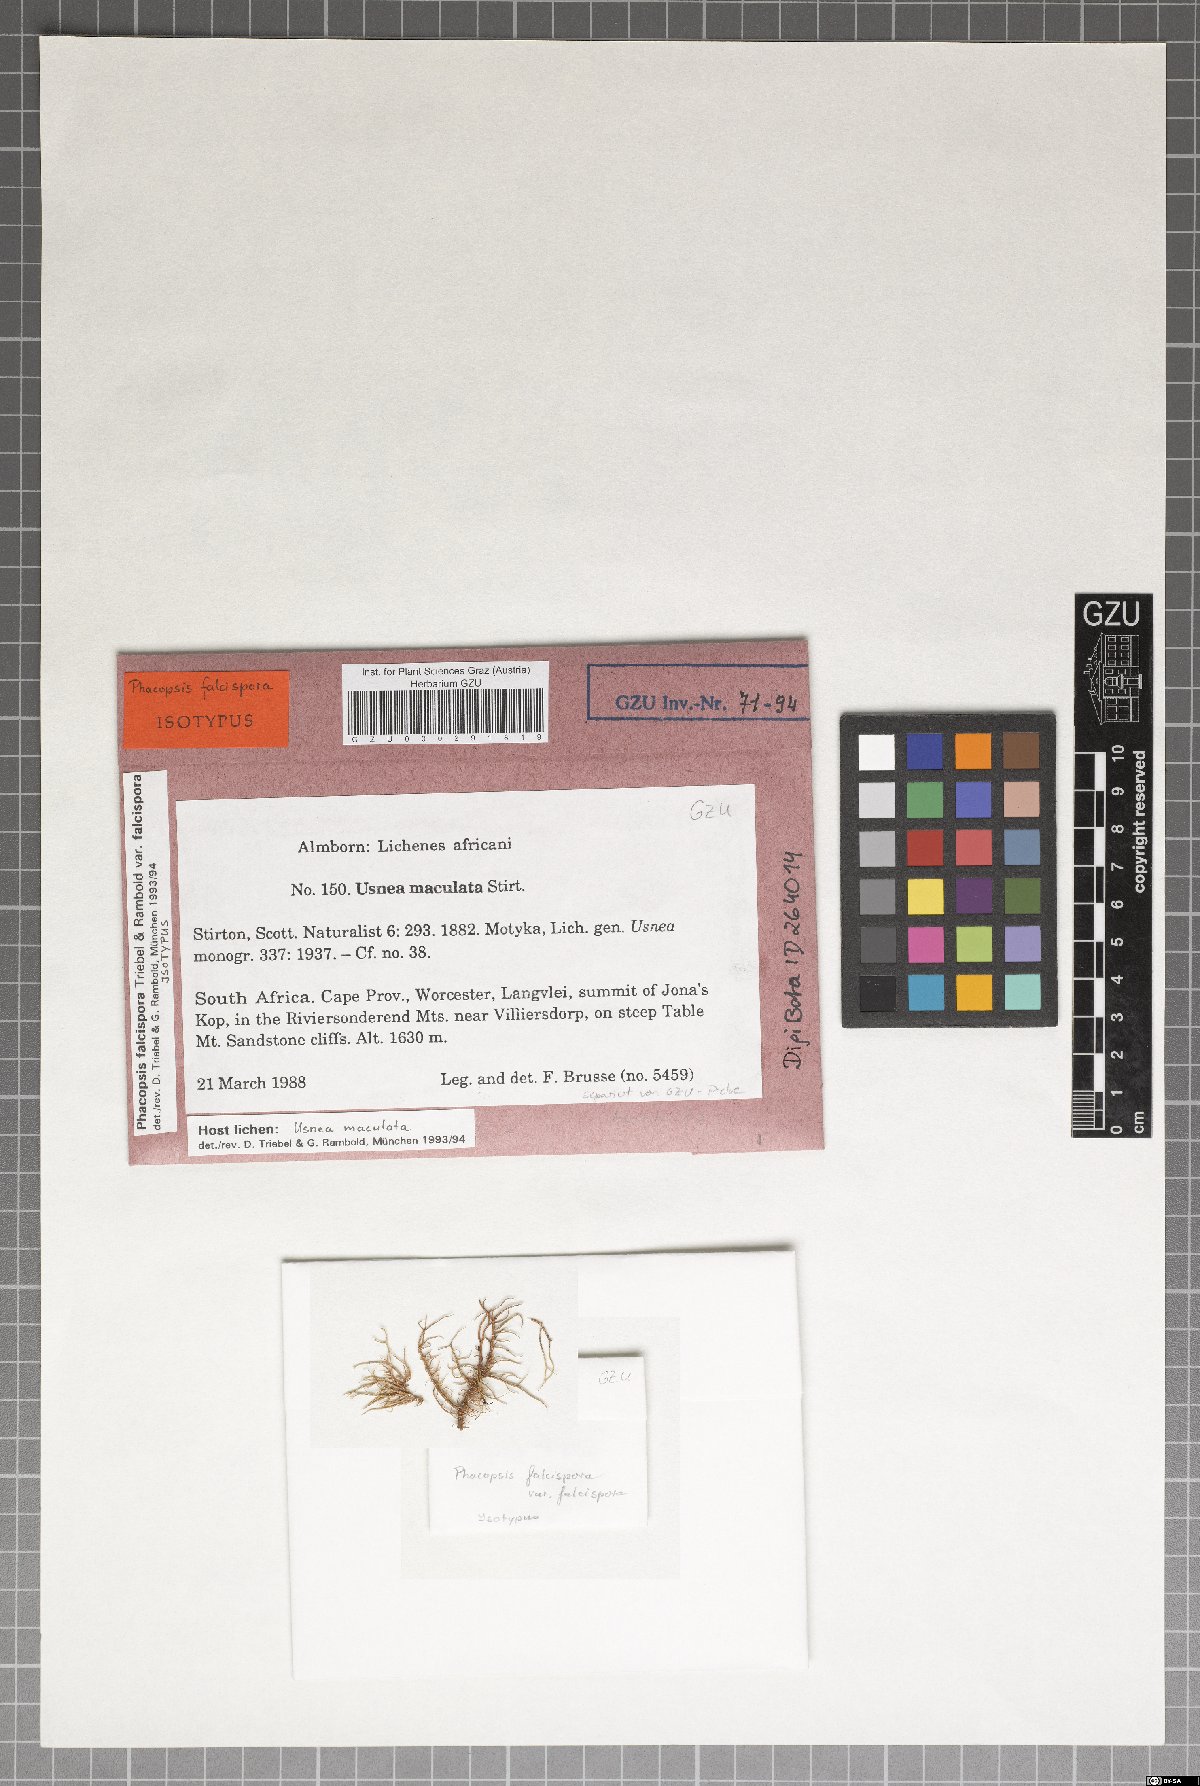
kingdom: Fungi
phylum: Ascomycota
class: Lecanoromycetes
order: Lecanorales
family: Parmeliaceae
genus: Nesolechia
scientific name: Nesolechia falcispora
